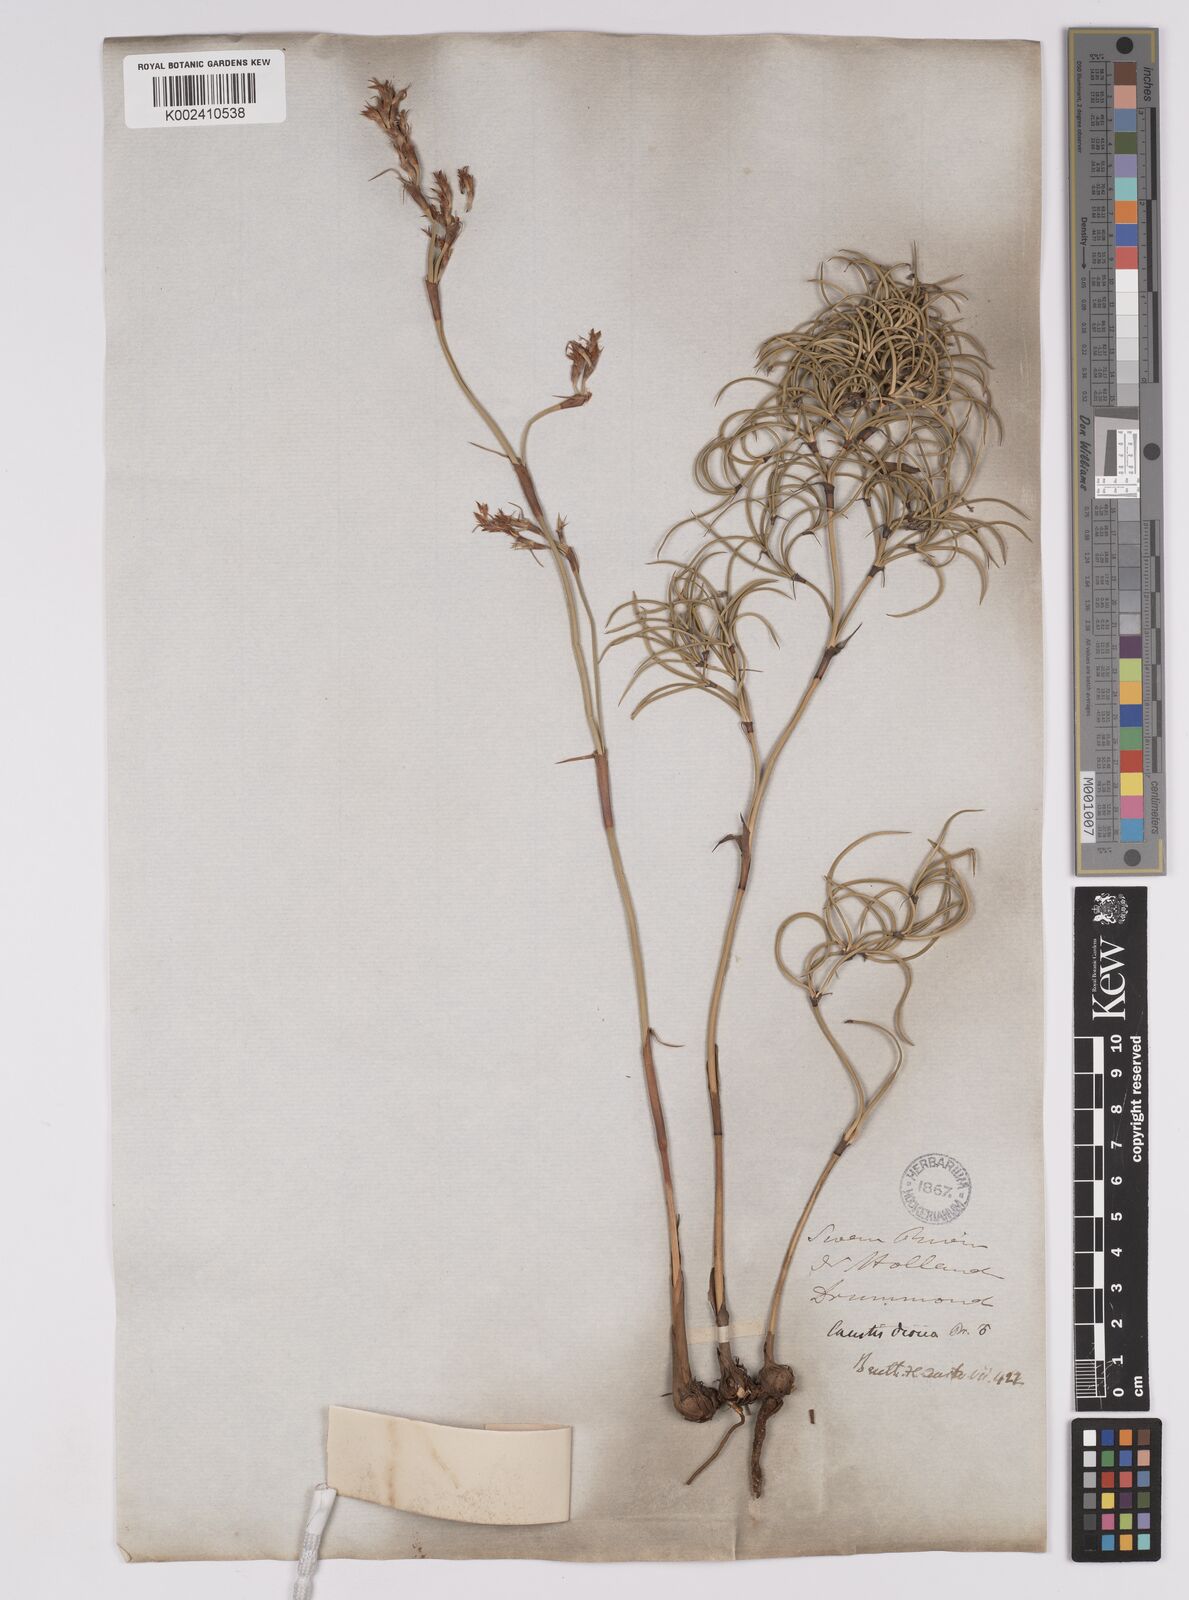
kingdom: Plantae
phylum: Tracheophyta
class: Liliopsida
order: Poales
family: Cyperaceae
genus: Caustis
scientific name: Caustis dioica
